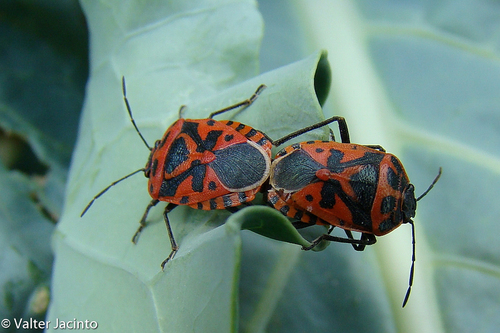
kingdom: Animalia
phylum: Arthropoda
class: Insecta
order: Hemiptera
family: Pentatomidae
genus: Eurydema
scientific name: Eurydema ventralis
